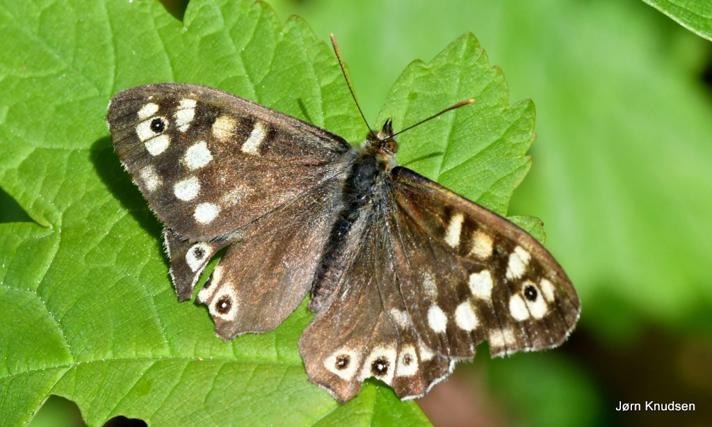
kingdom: Animalia
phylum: Arthropoda
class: Insecta
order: Lepidoptera
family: Nymphalidae
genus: Pararge
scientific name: Pararge aegeria
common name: Skovrandøje
